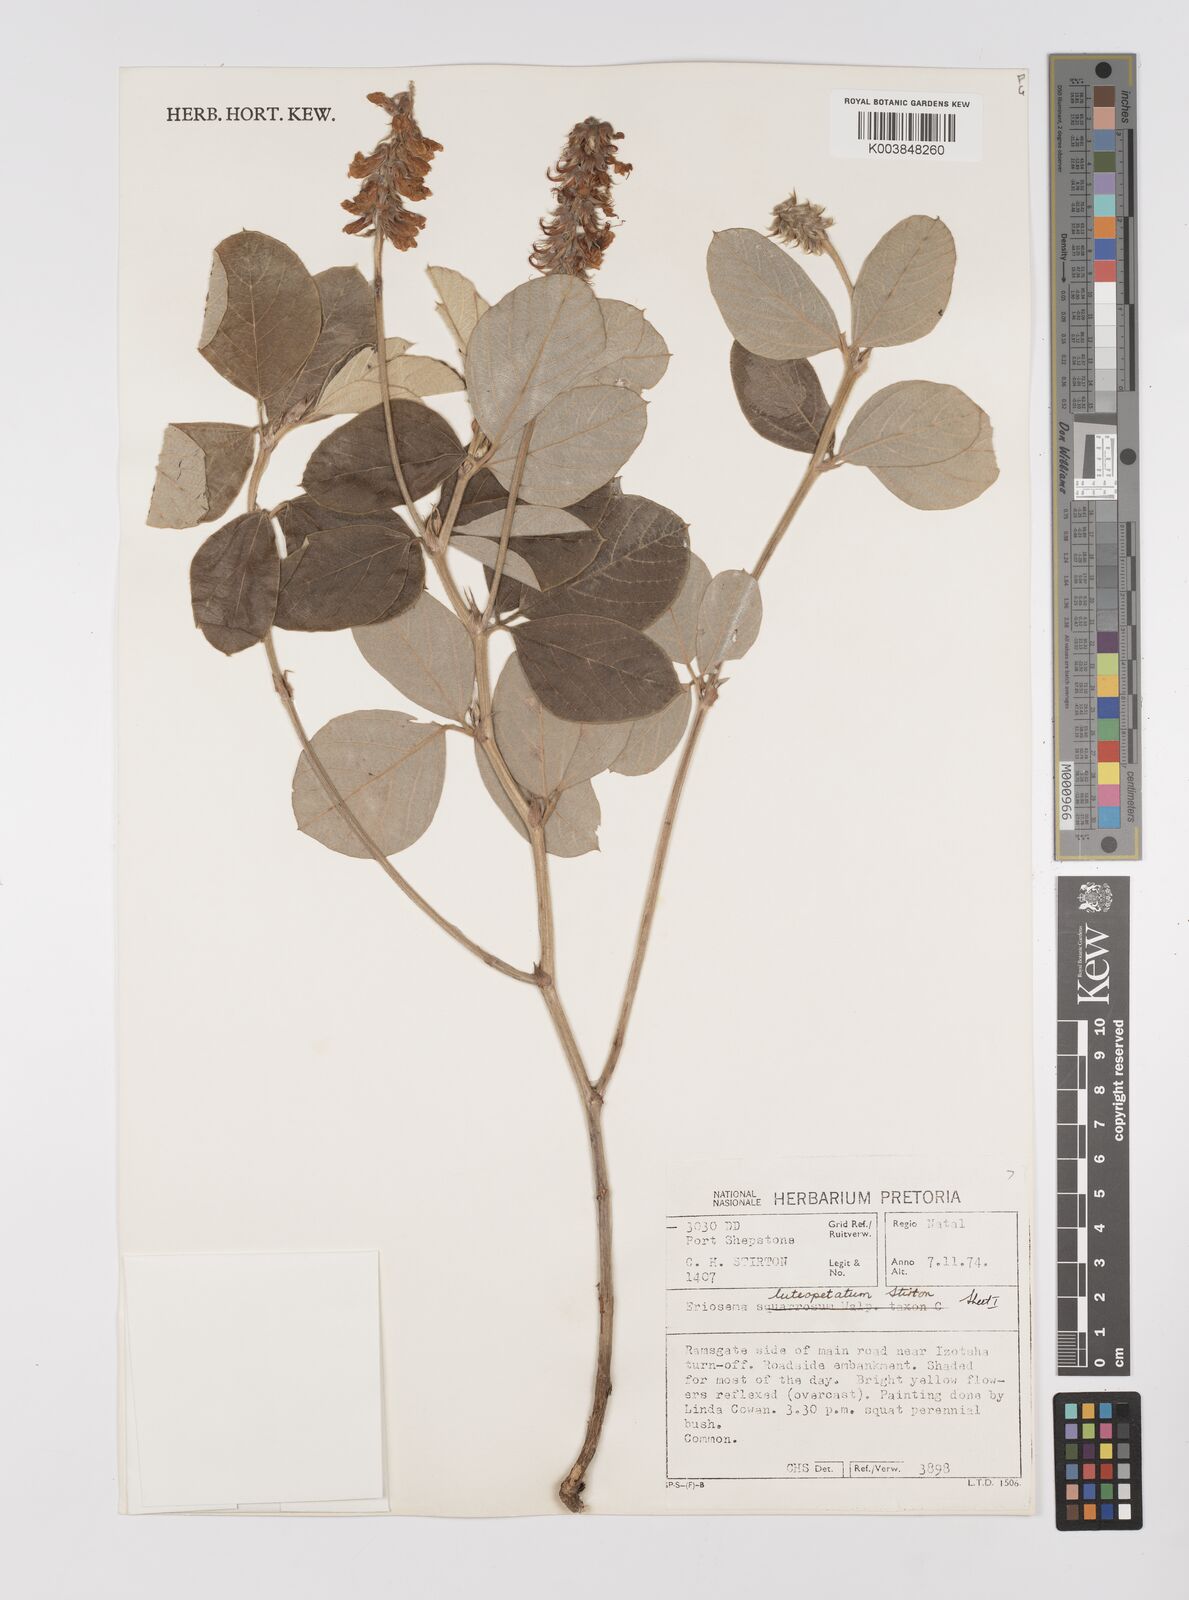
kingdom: Plantae
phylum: Tracheophyta
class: Magnoliopsida
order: Fabales
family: Fabaceae
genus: Eriosema
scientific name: Eriosema luteopetalum
